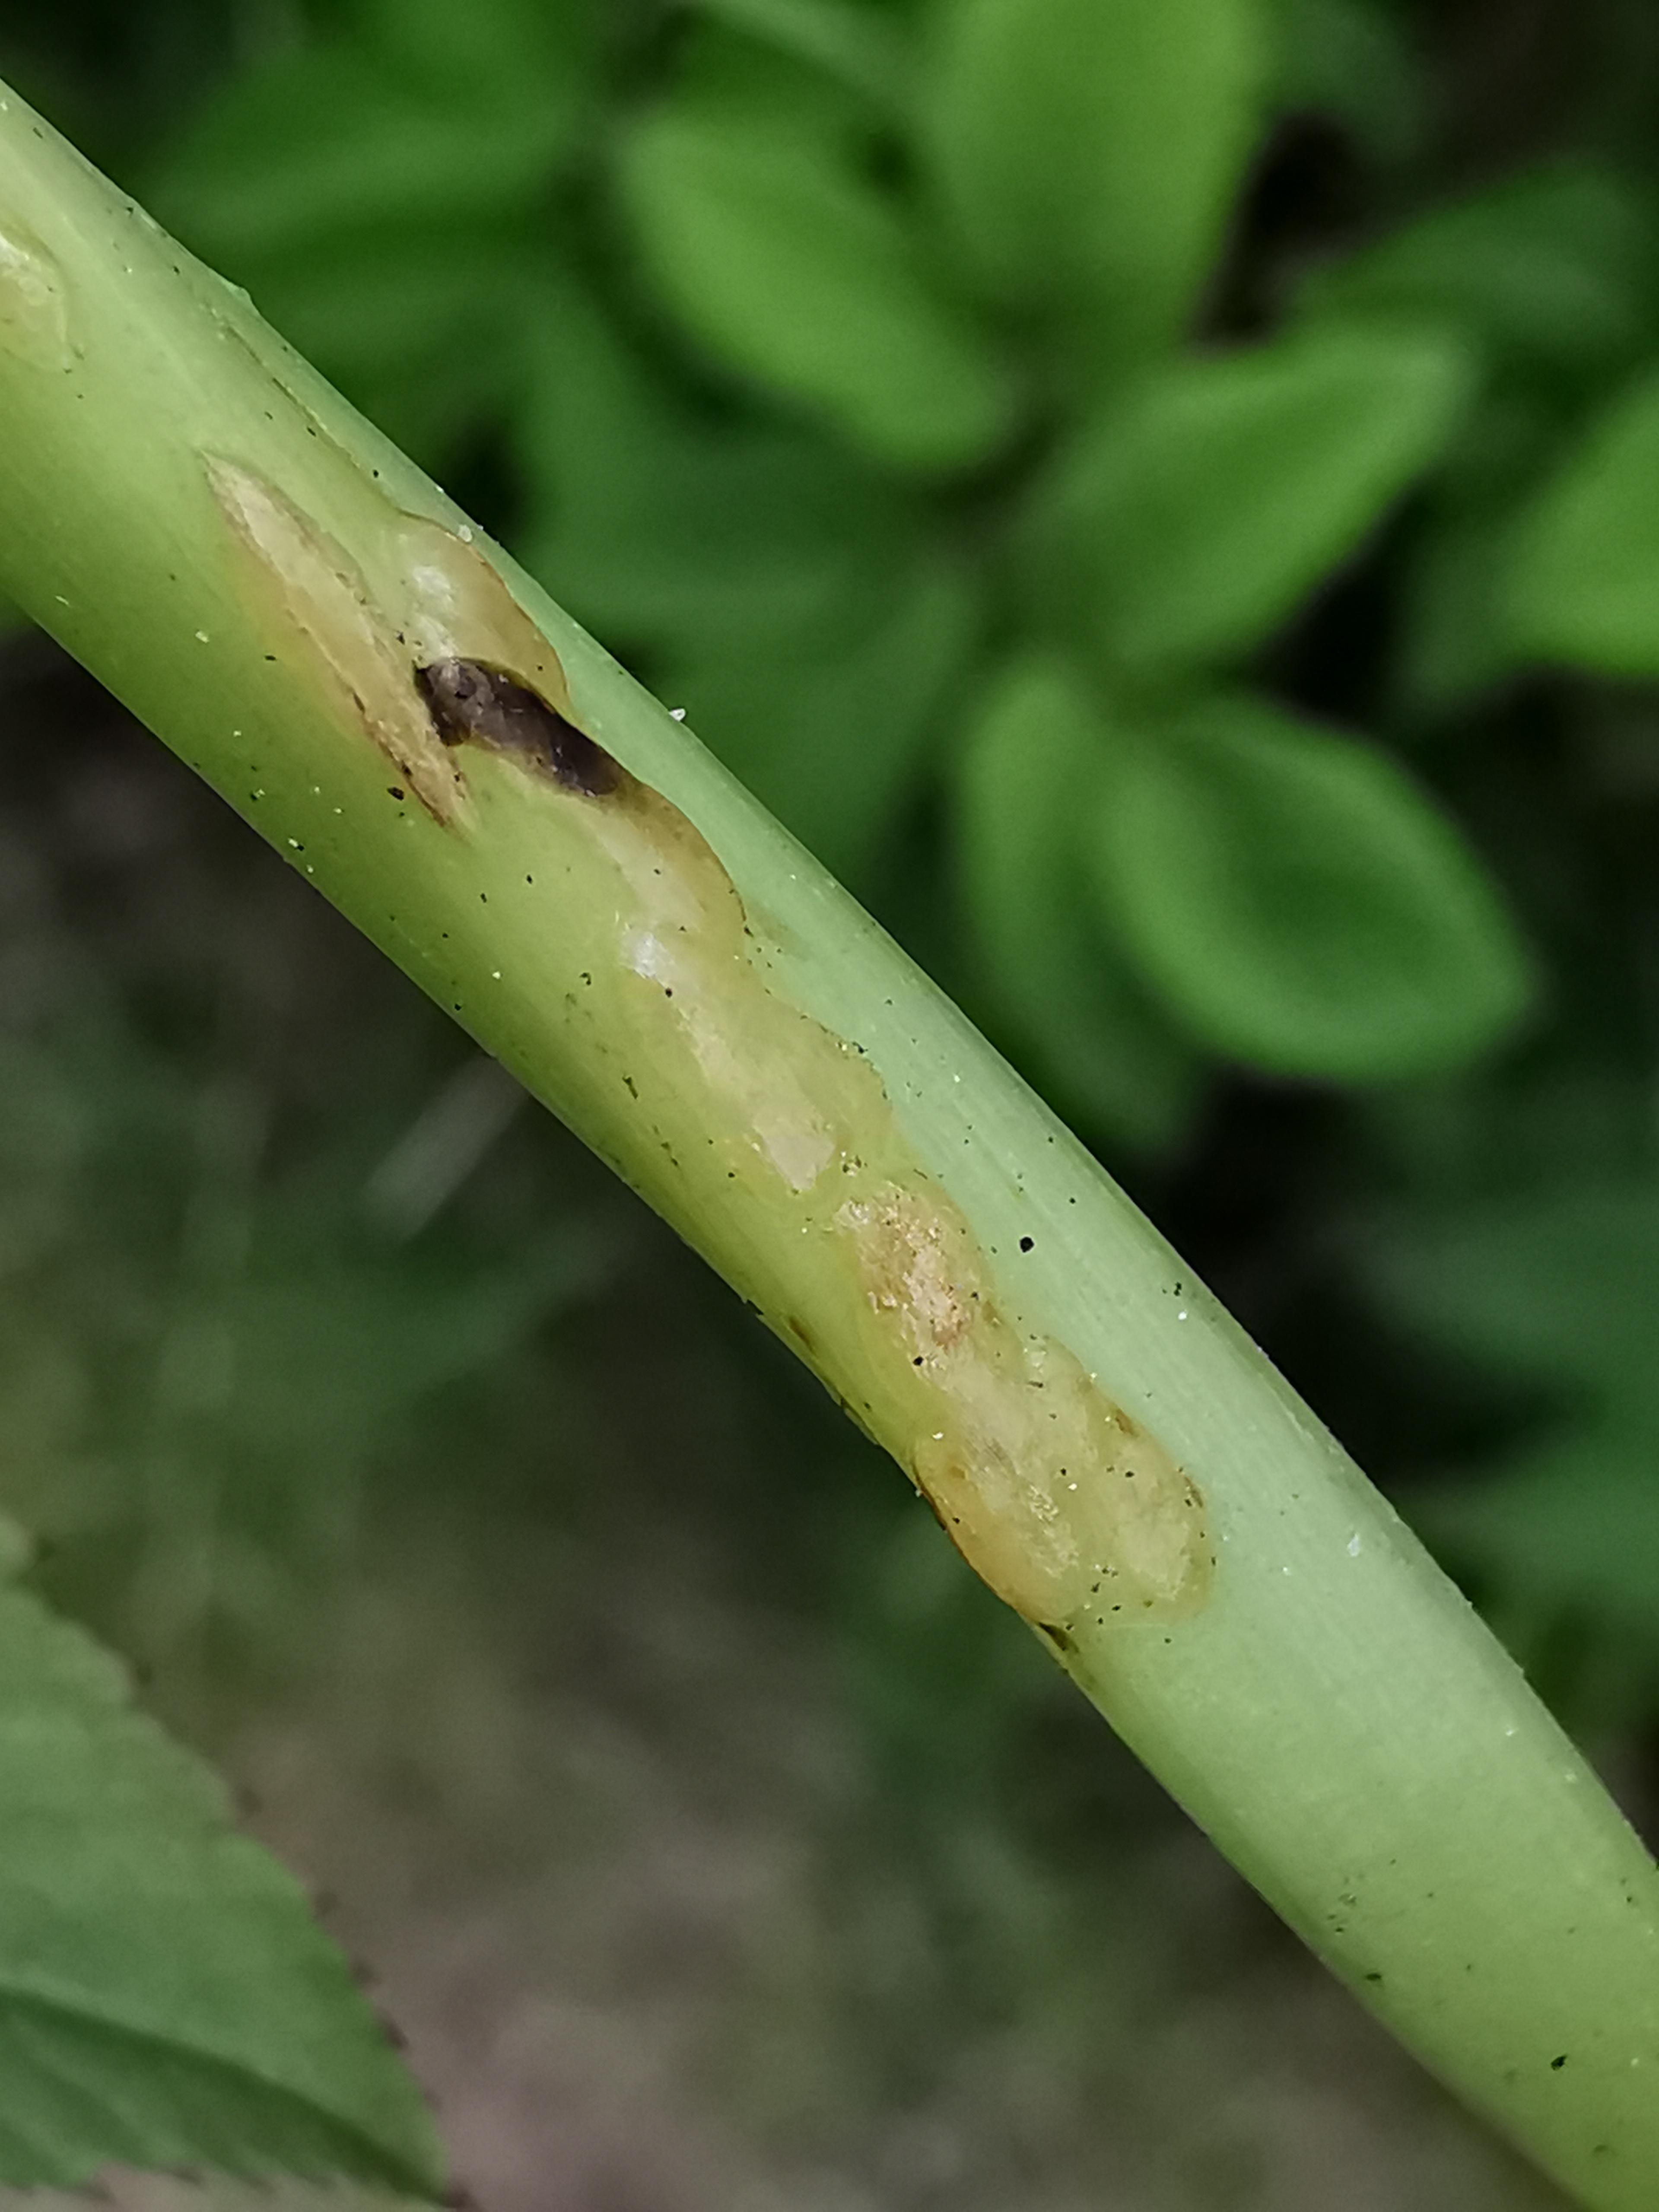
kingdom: Fungi
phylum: Ascomycota
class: Taphrinomycetes
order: Taphrinales
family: Taphrinaceae
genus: Protomyces
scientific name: Protomyces macrosporus
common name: skvalderkål-vablesæk
